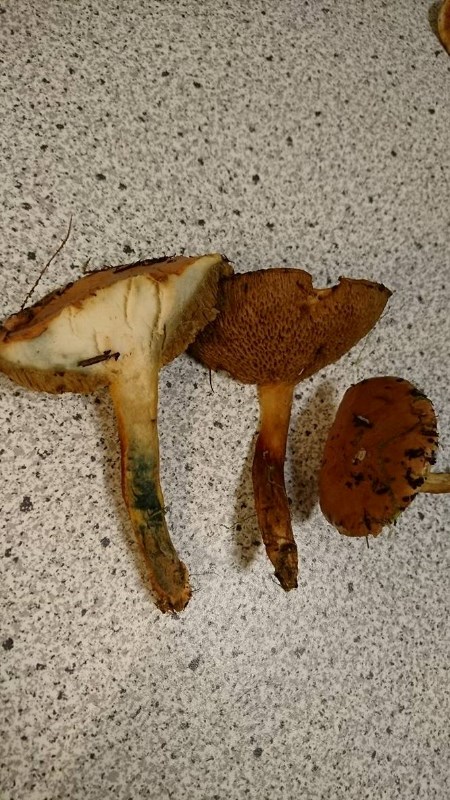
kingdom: Fungi
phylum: Basidiomycota
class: Agaricomycetes
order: Boletales
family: Suillaceae
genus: Suillus
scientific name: Suillus bovinus
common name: grovporet slimrørhat
